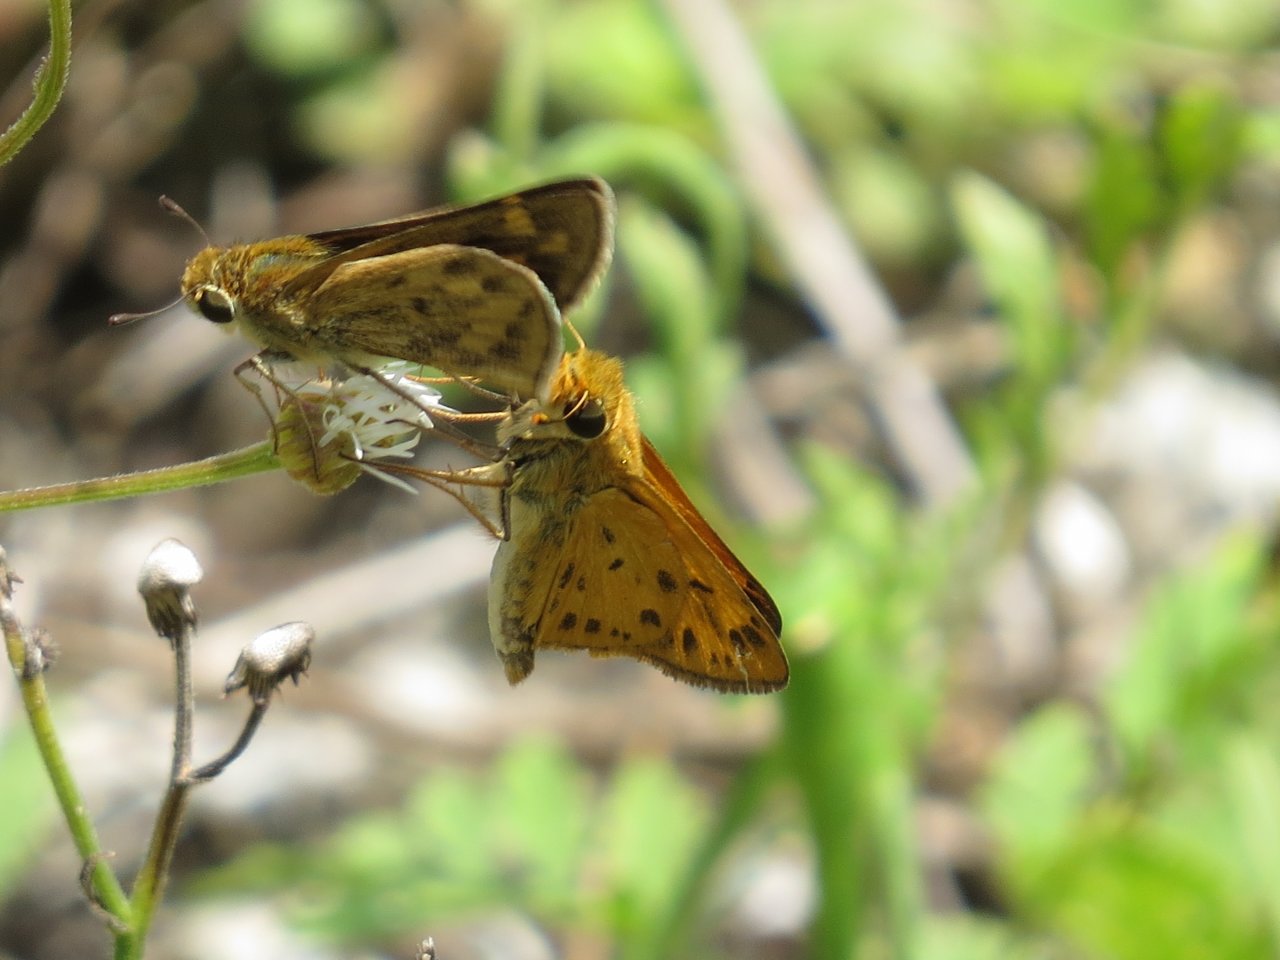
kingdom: Animalia
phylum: Arthropoda
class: Insecta
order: Lepidoptera
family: Hesperiidae
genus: Hylephila
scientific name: Hylephila phyleus
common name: Fiery Skipper
